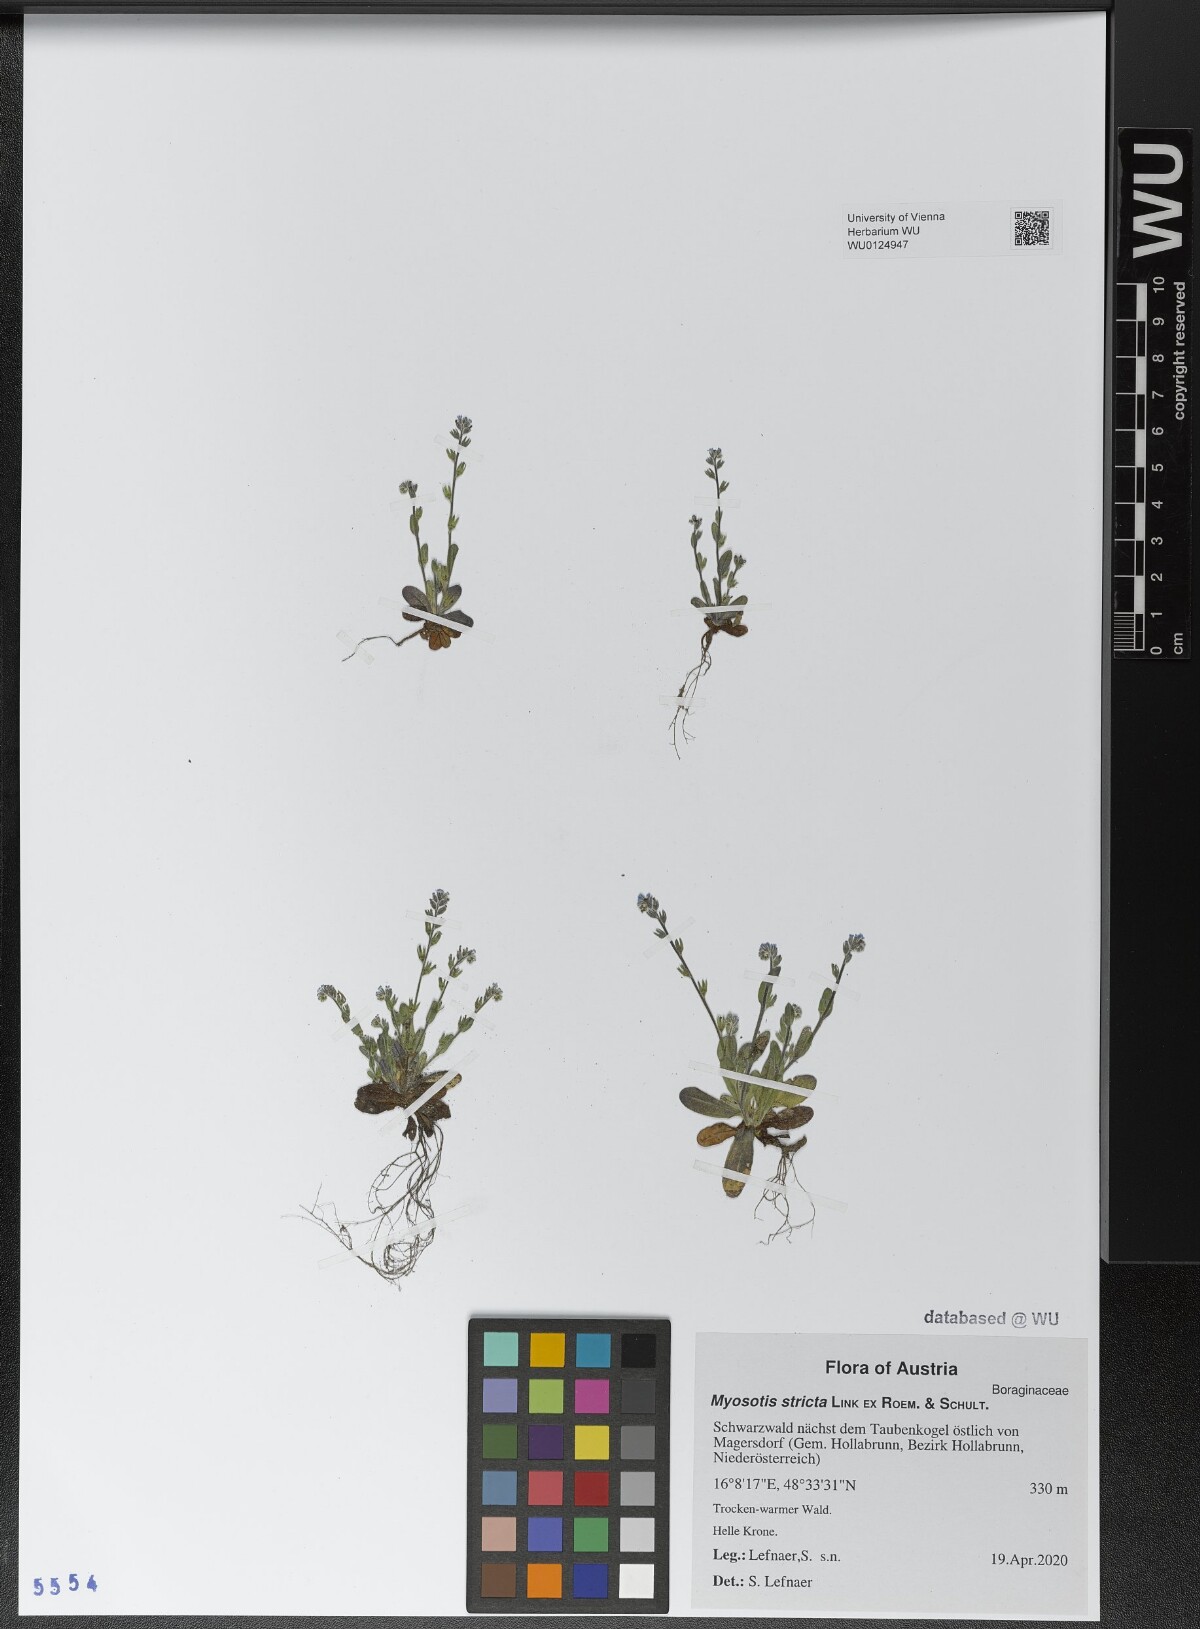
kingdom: Plantae
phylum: Tracheophyta
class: Magnoliopsida
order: Boraginales
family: Boraginaceae
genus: Myosotis
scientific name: Myosotis stricta
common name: Strict forget-me-not
